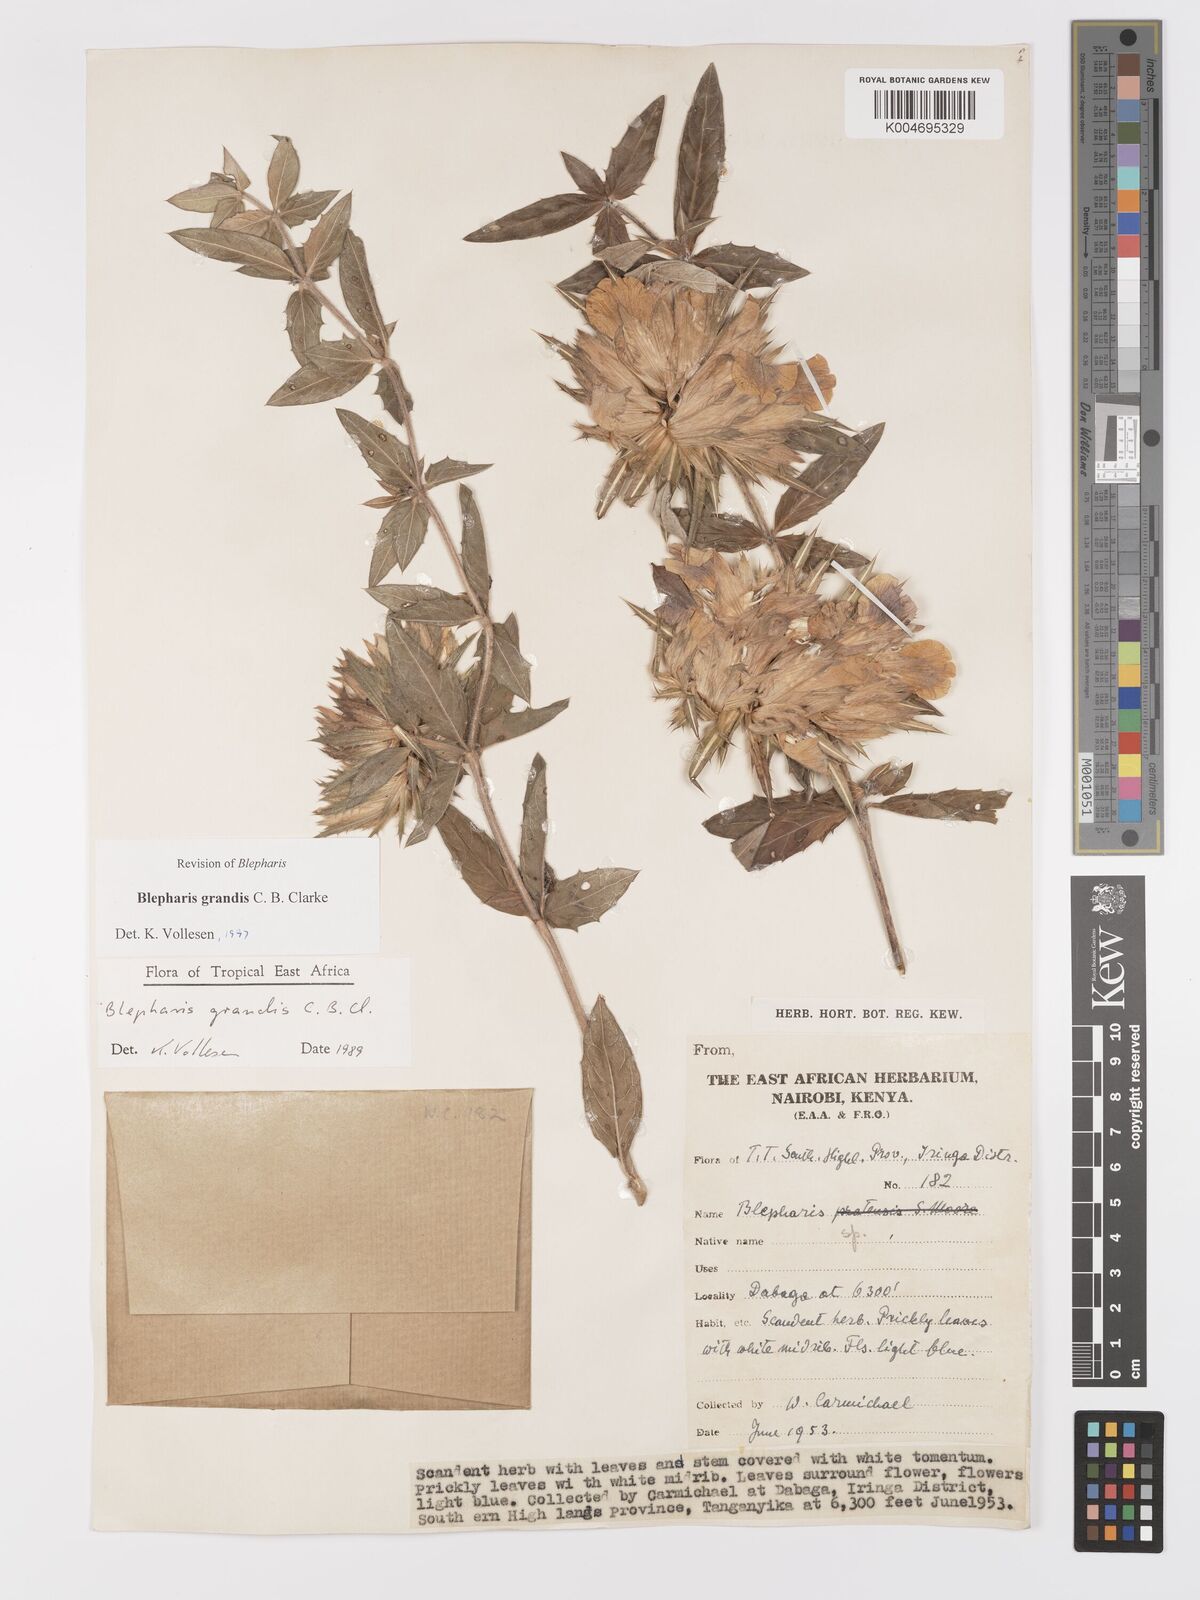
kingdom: Plantae
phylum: Tracheophyta
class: Magnoliopsida
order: Lamiales
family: Acanthaceae
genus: Blepharis
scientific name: Blepharis grandis
